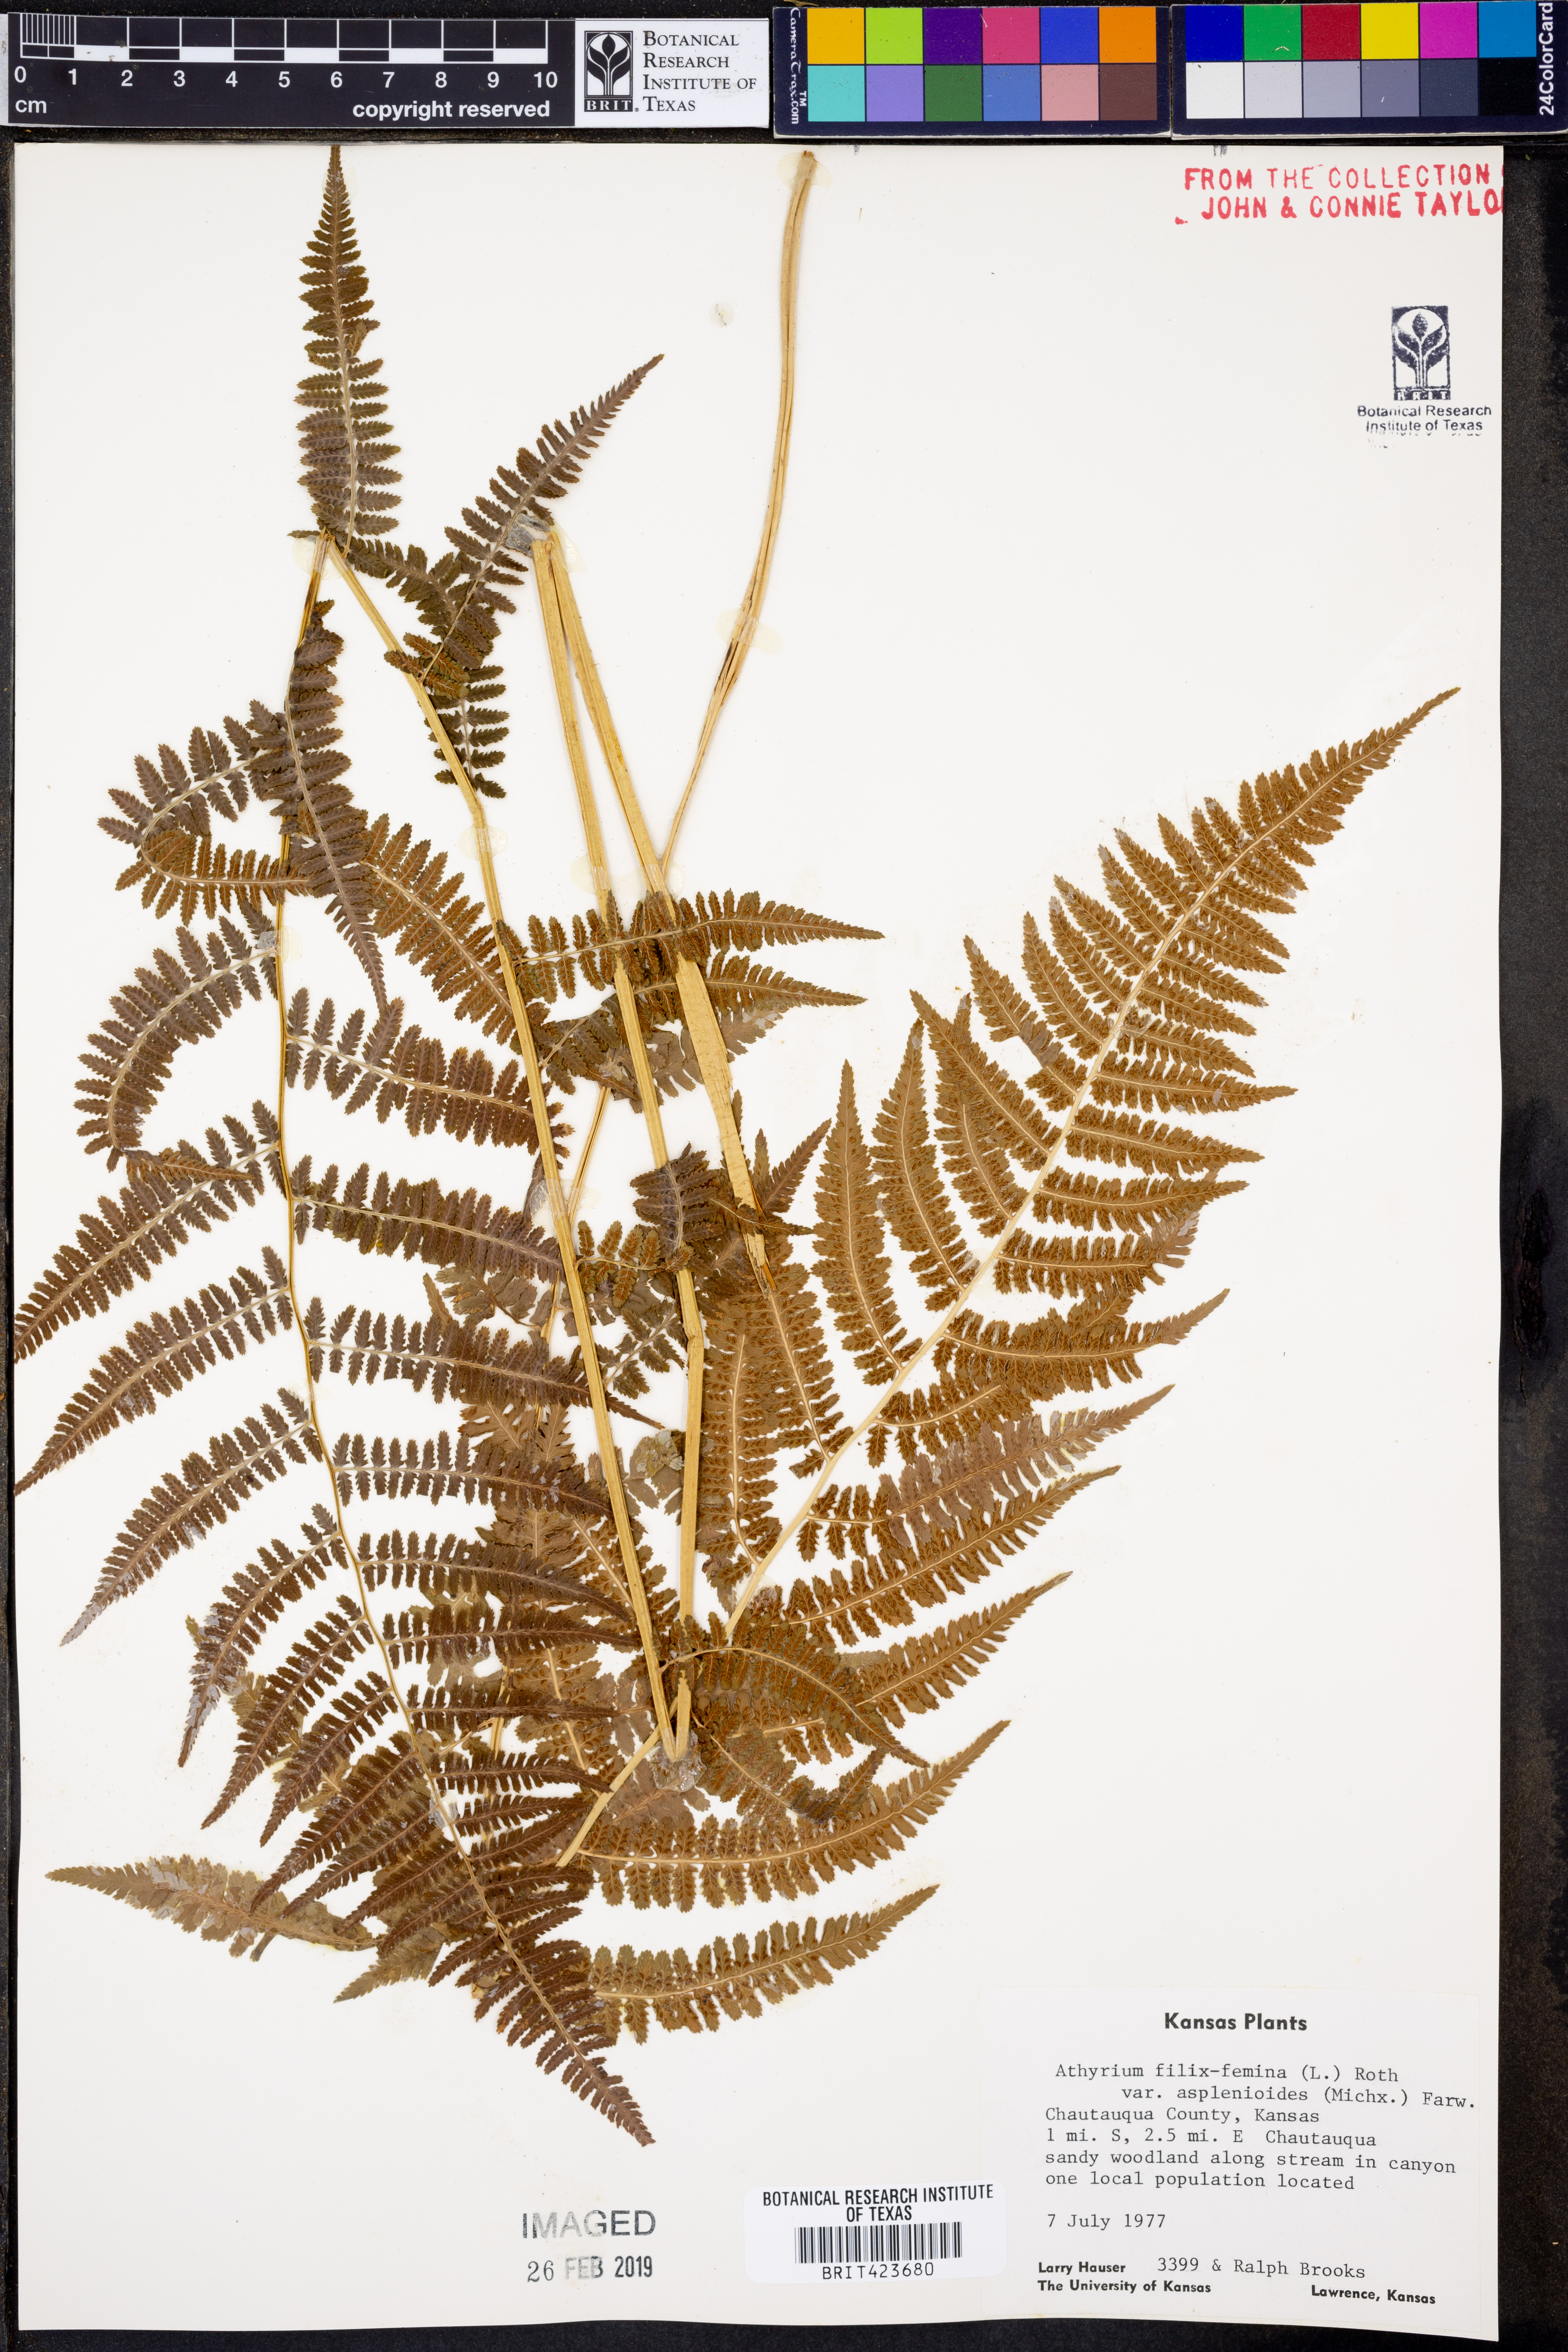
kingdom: Plantae
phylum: Tracheophyta
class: Polypodiopsida
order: Polypodiales
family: Athyriaceae
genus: Athyrium
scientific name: Athyrium asplenioides
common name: Southern lady fern
